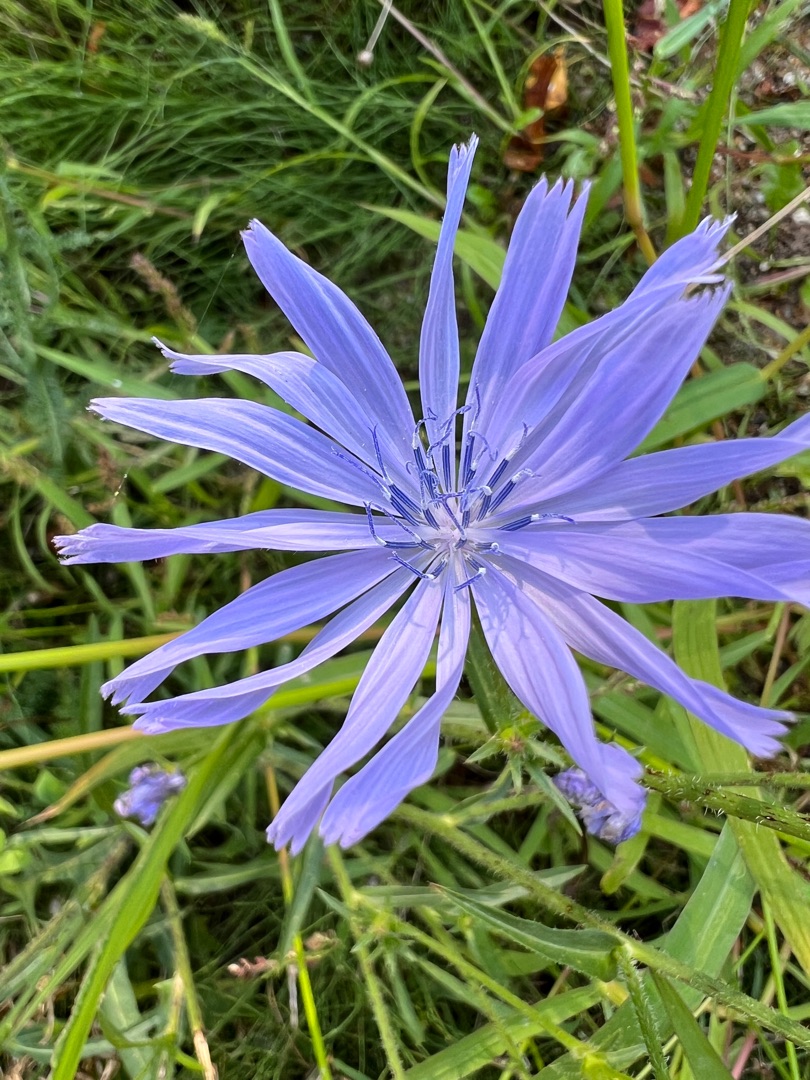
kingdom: Plantae
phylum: Tracheophyta
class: Magnoliopsida
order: Asterales
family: Asteraceae
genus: Cichorium
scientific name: Cichorium intybus
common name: Cikorie
